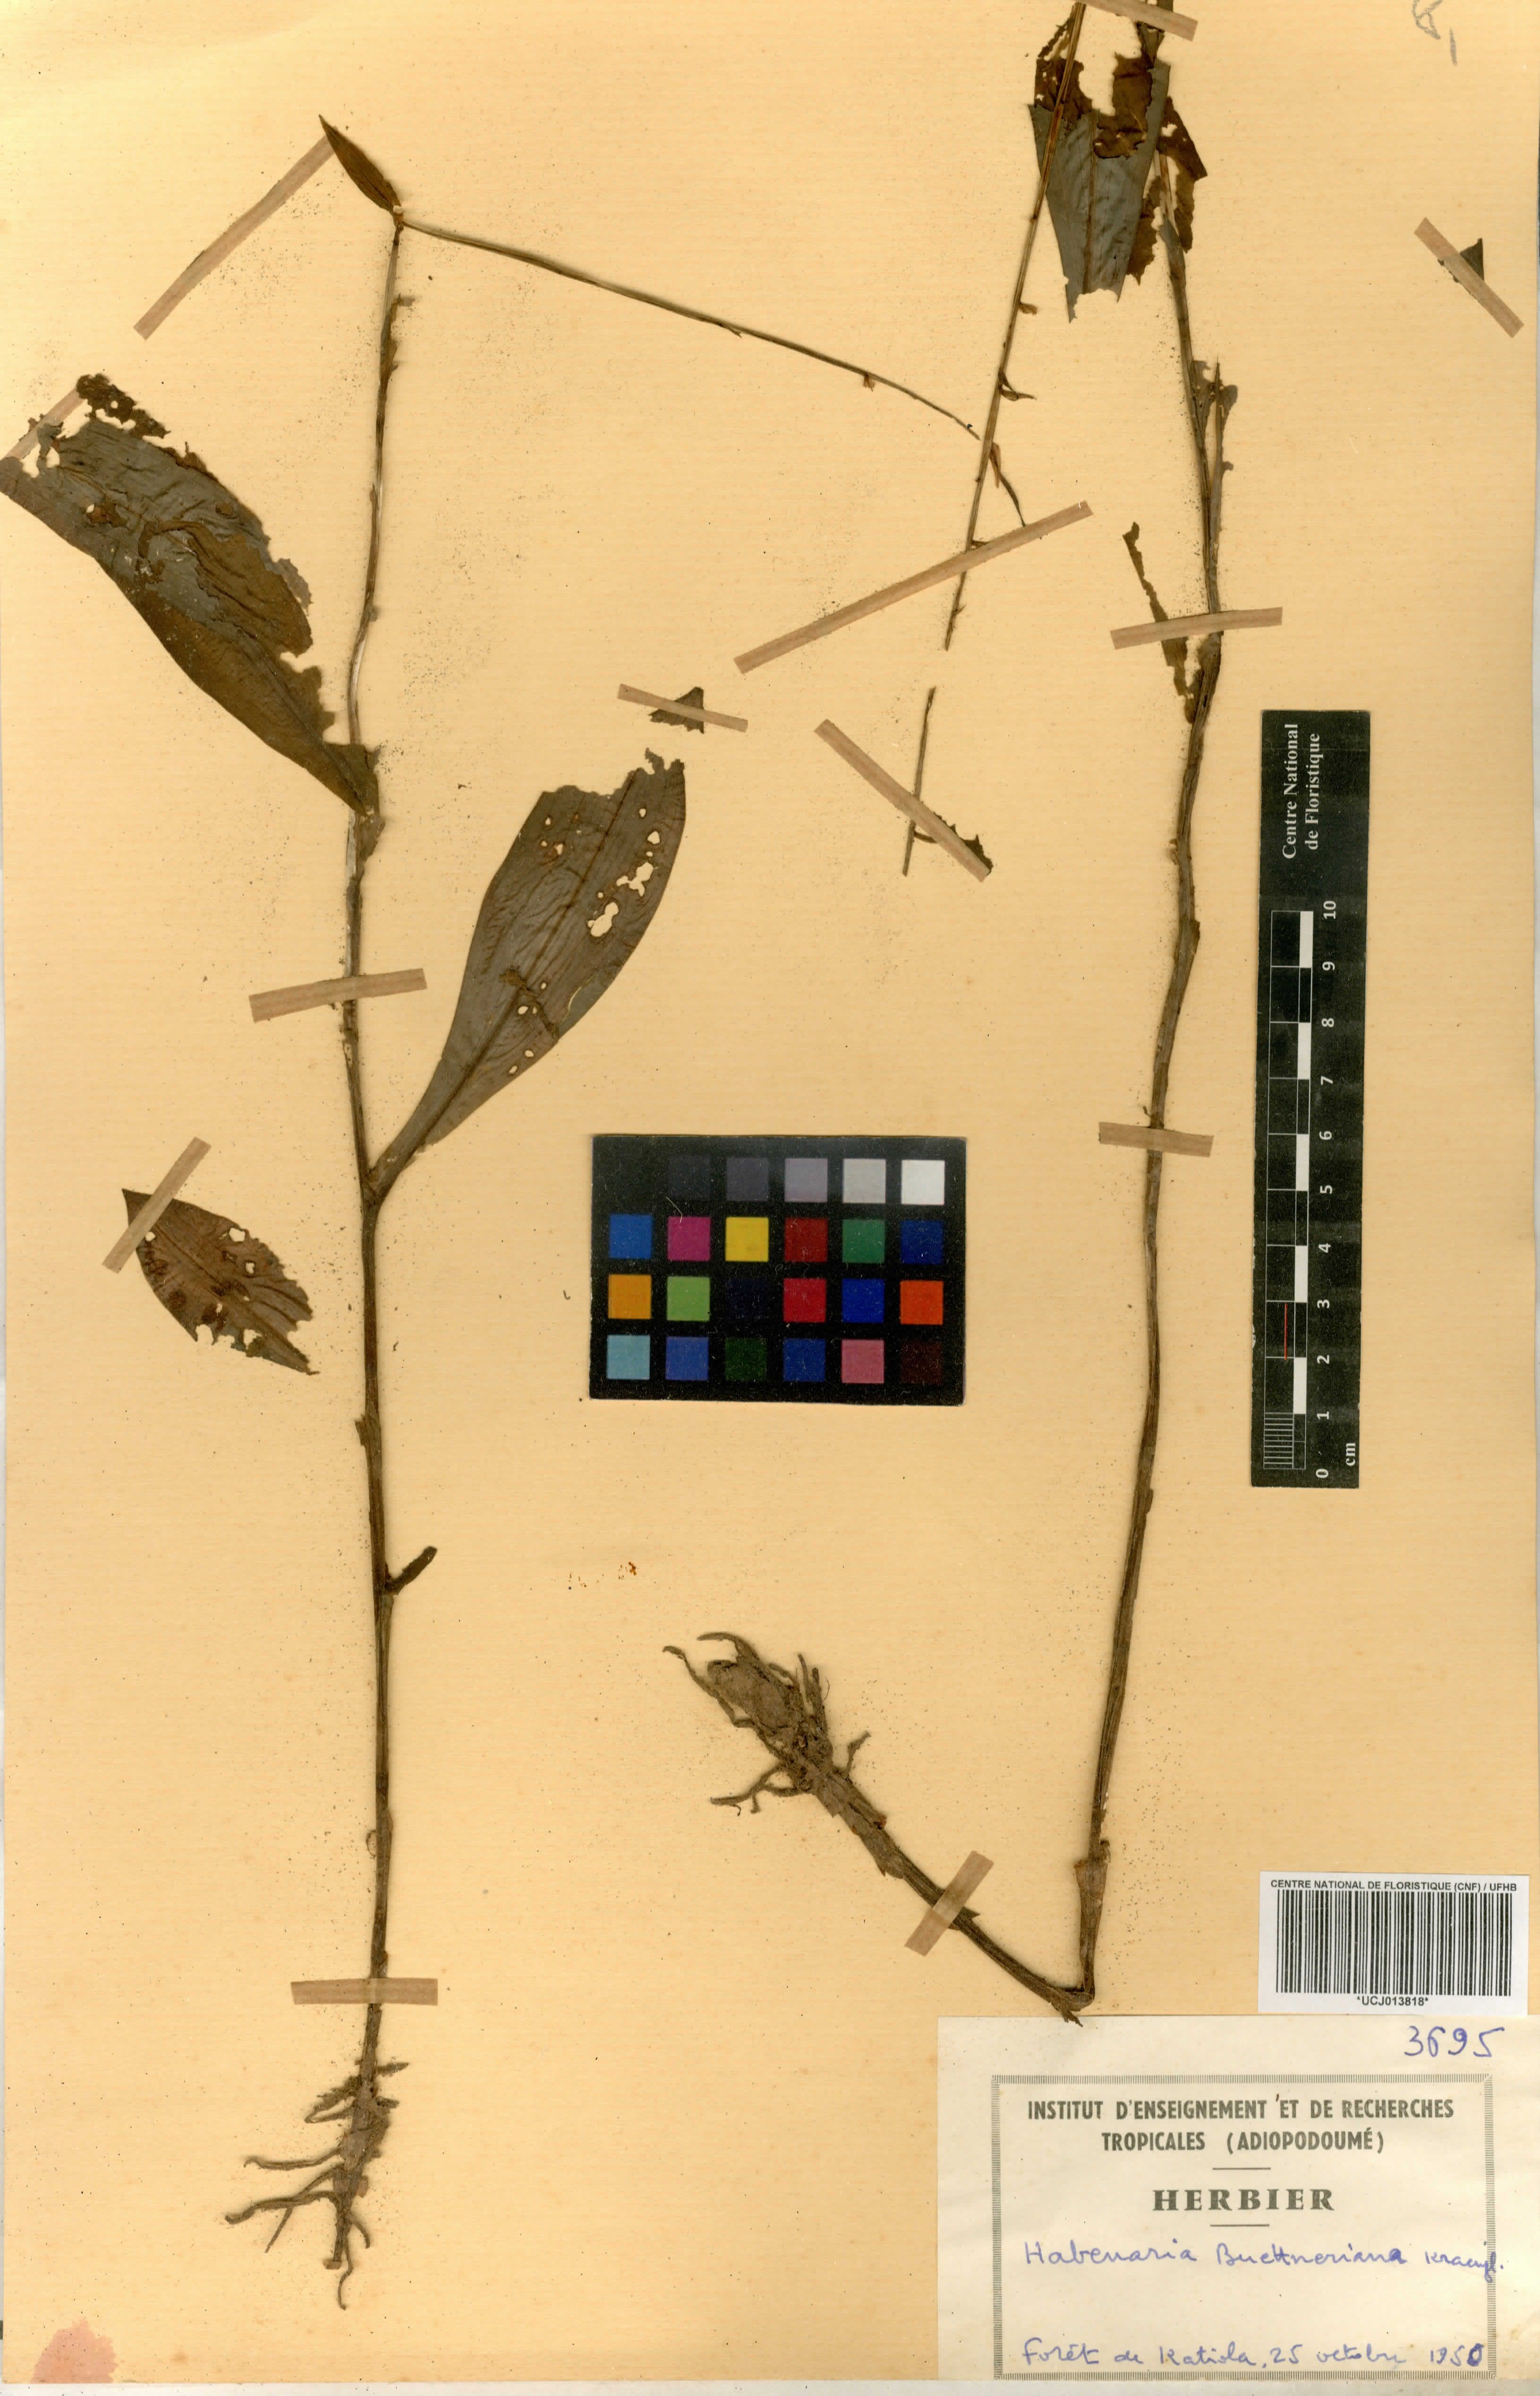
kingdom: Plantae
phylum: Tracheophyta
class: Liliopsida
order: Asparagales
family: Orchidaceae
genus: Habenaria
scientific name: Habenaria buettneriana
